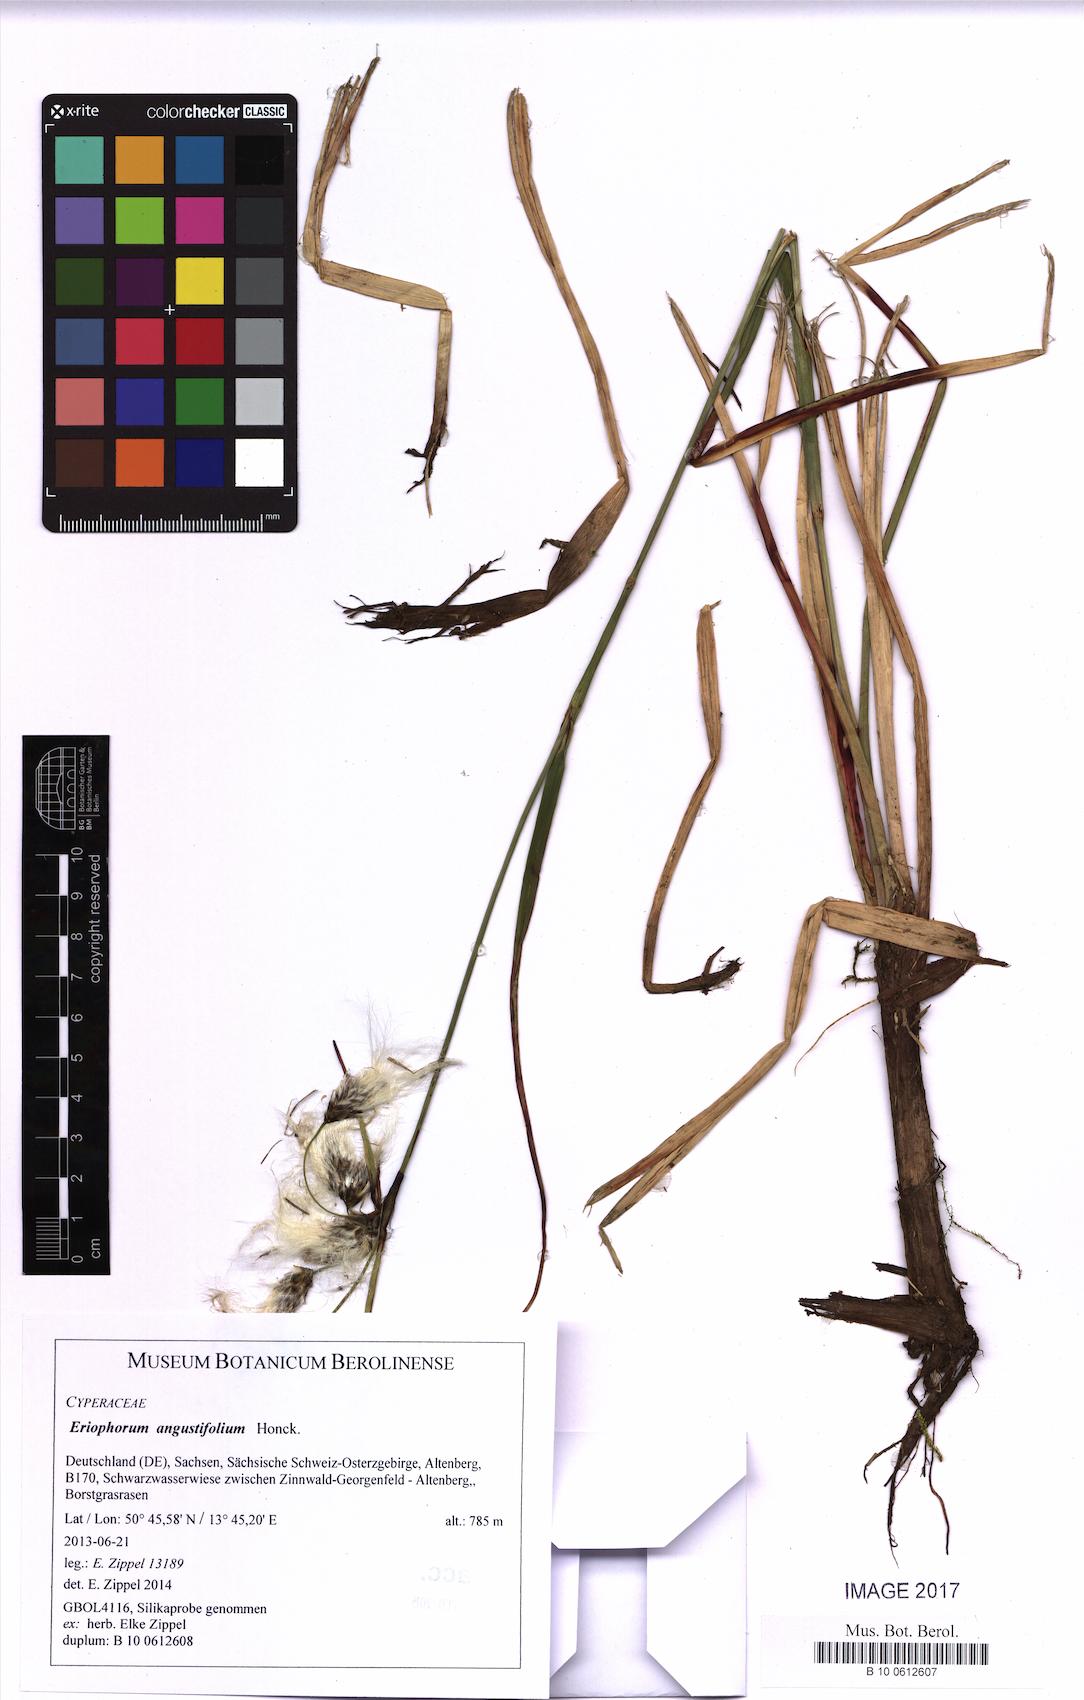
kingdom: Plantae
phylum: Tracheophyta
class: Liliopsida
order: Poales
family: Cyperaceae
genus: Eriophorum
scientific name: Eriophorum angustifolium
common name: Common cottongrass
